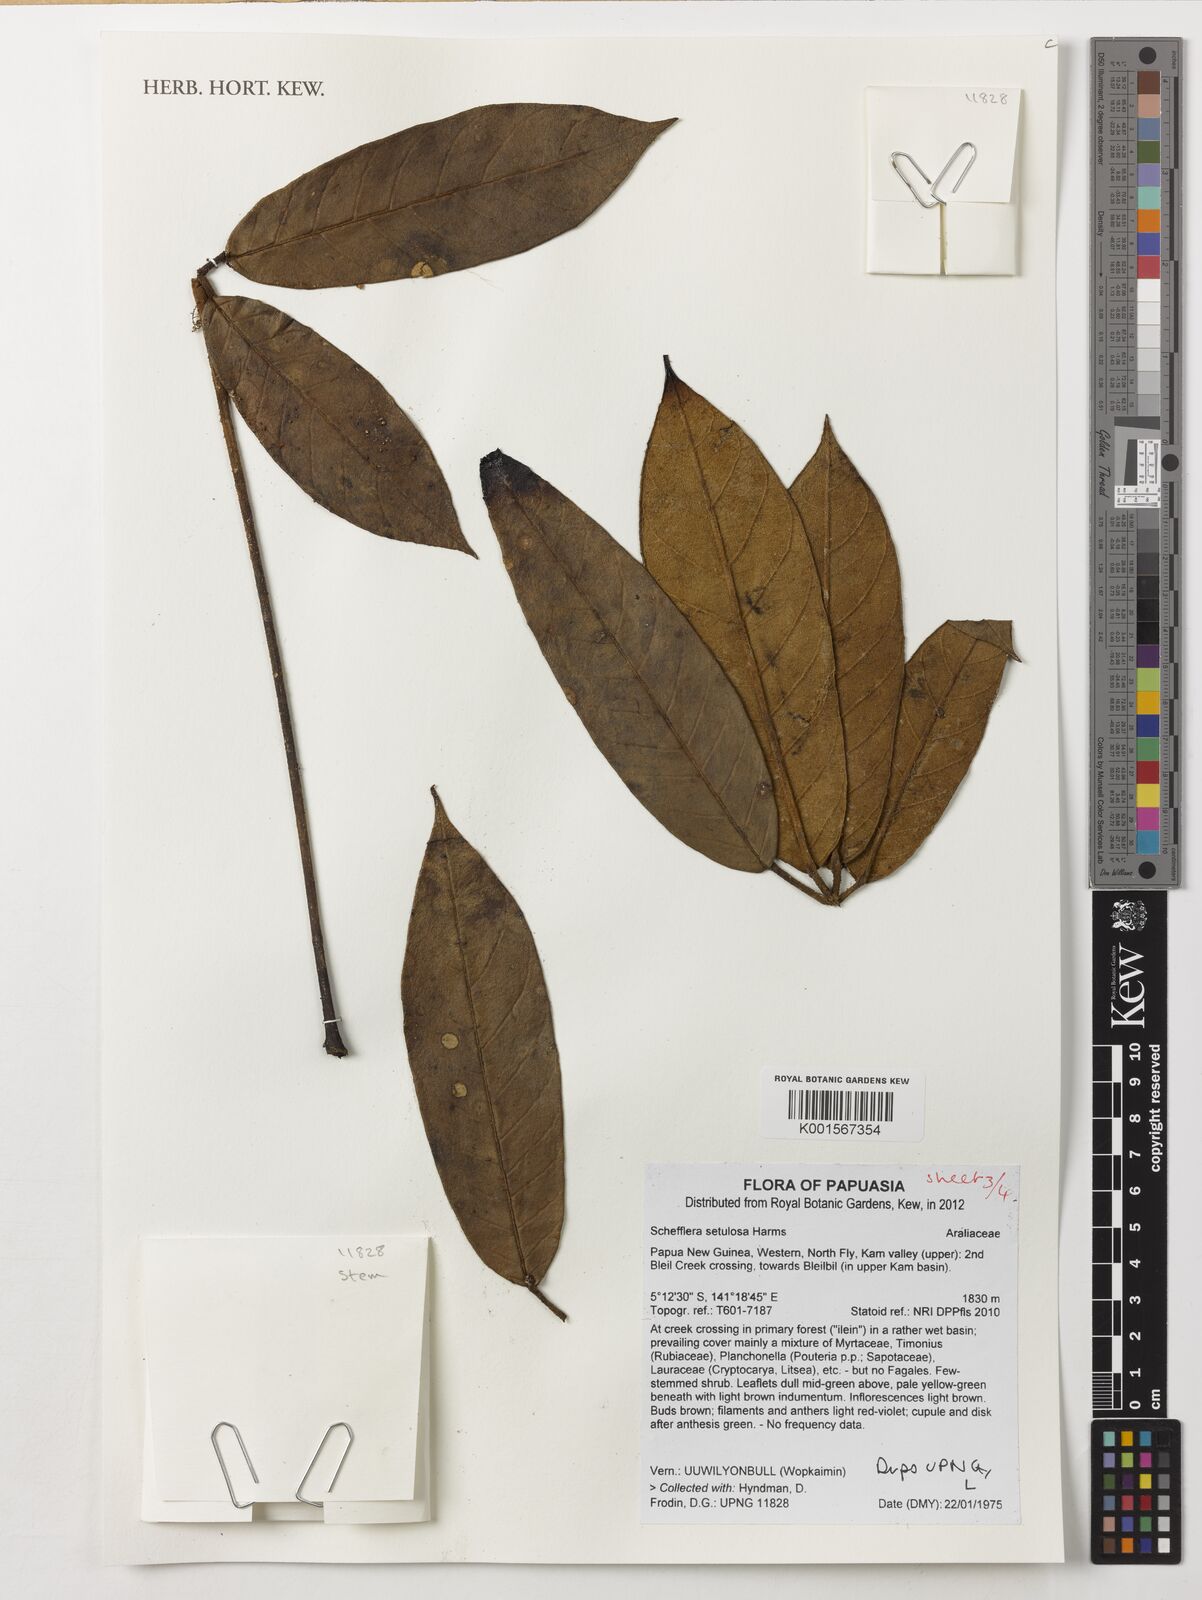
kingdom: Plantae
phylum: Tracheophyta
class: Magnoliopsida
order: Apiales
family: Araliaceae
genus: Heptapleurum
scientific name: Heptapleurum setulosum
